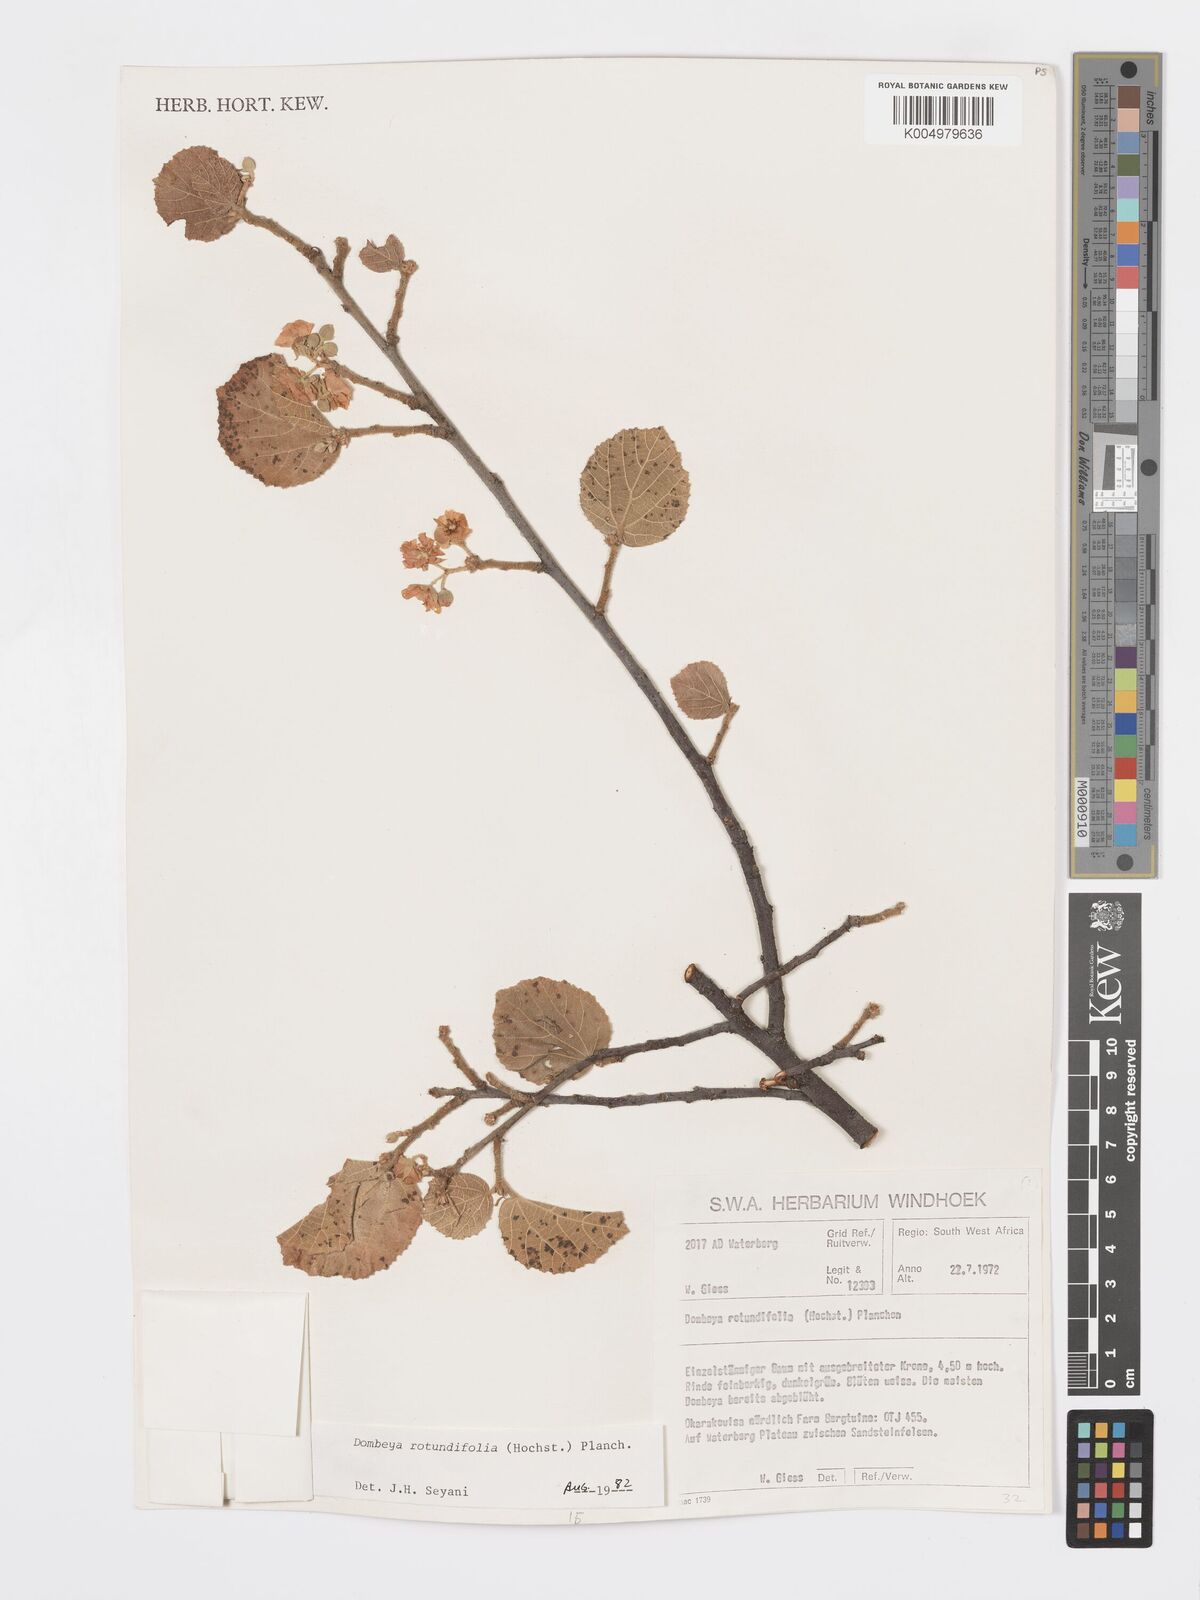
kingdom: Plantae
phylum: Tracheophyta
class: Magnoliopsida
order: Malvales
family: Malvaceae
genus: Dombeya
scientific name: Dombeya rotundifolia
